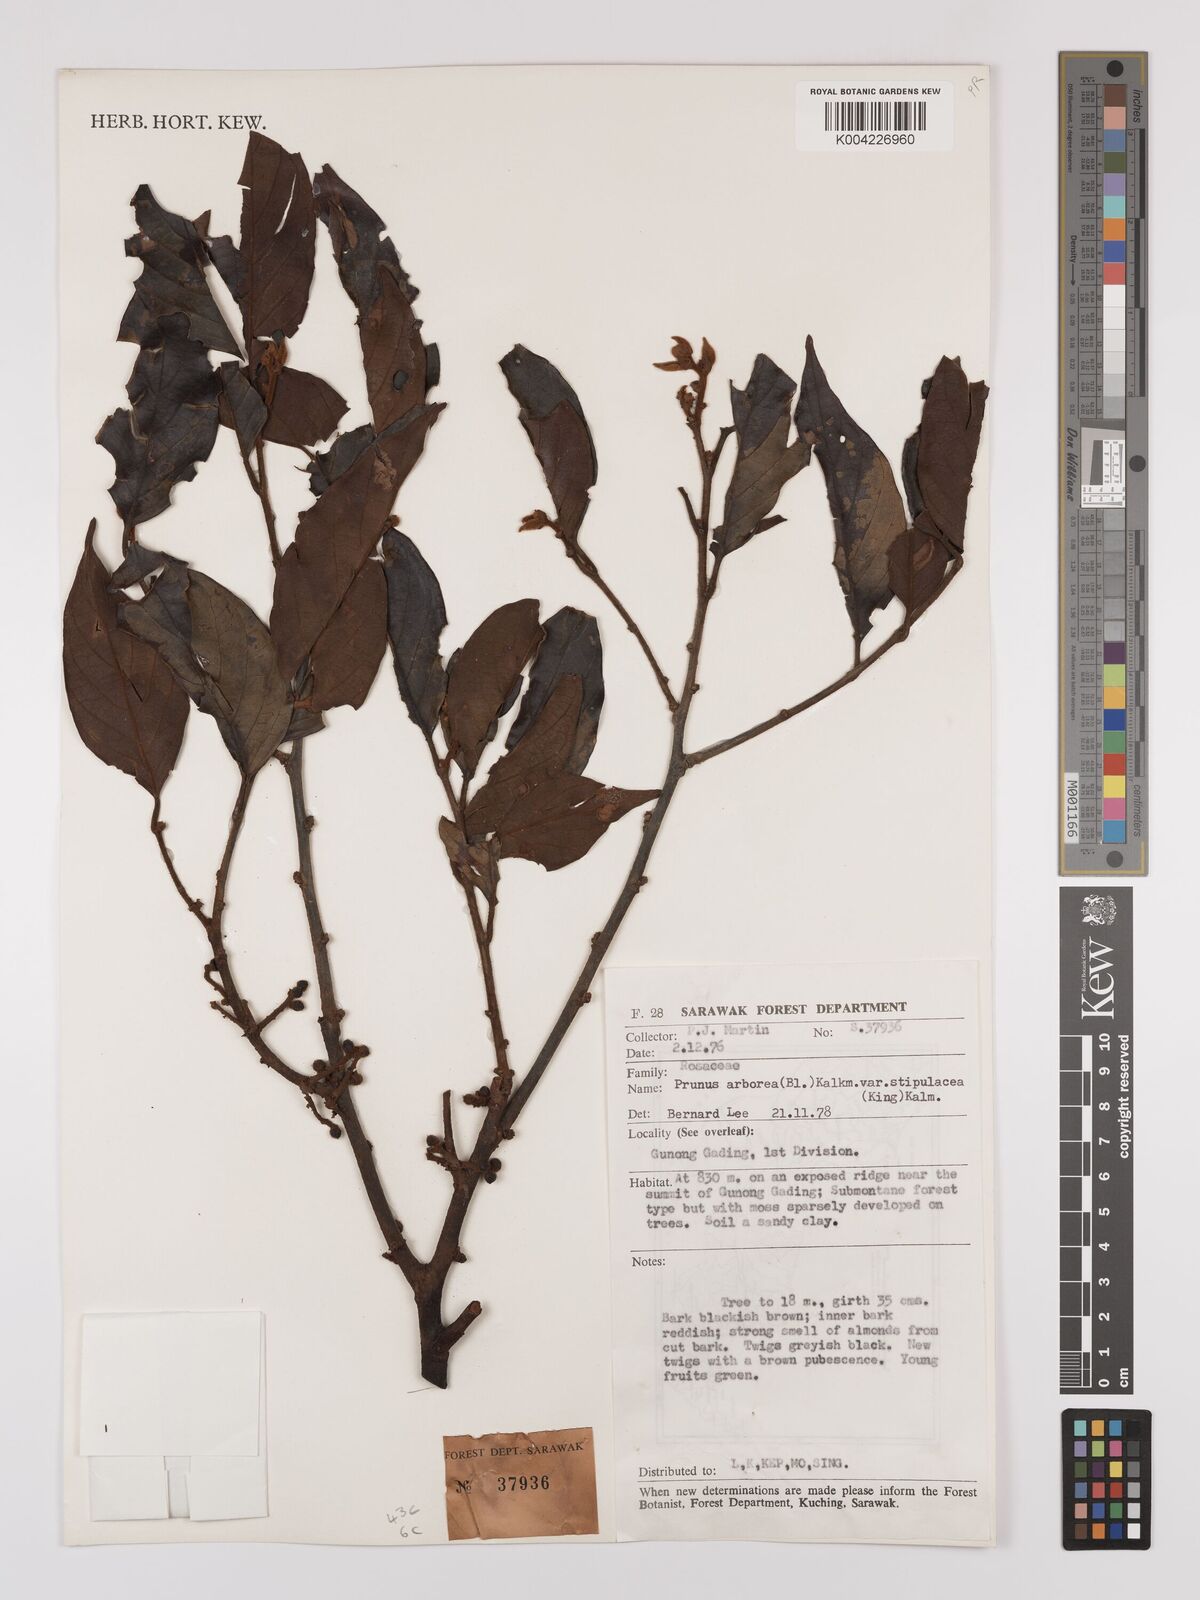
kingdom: Plantae
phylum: Tracheophyta
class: Magnoliopsida
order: Rosales
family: Rosaceae
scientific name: Rosaceae
